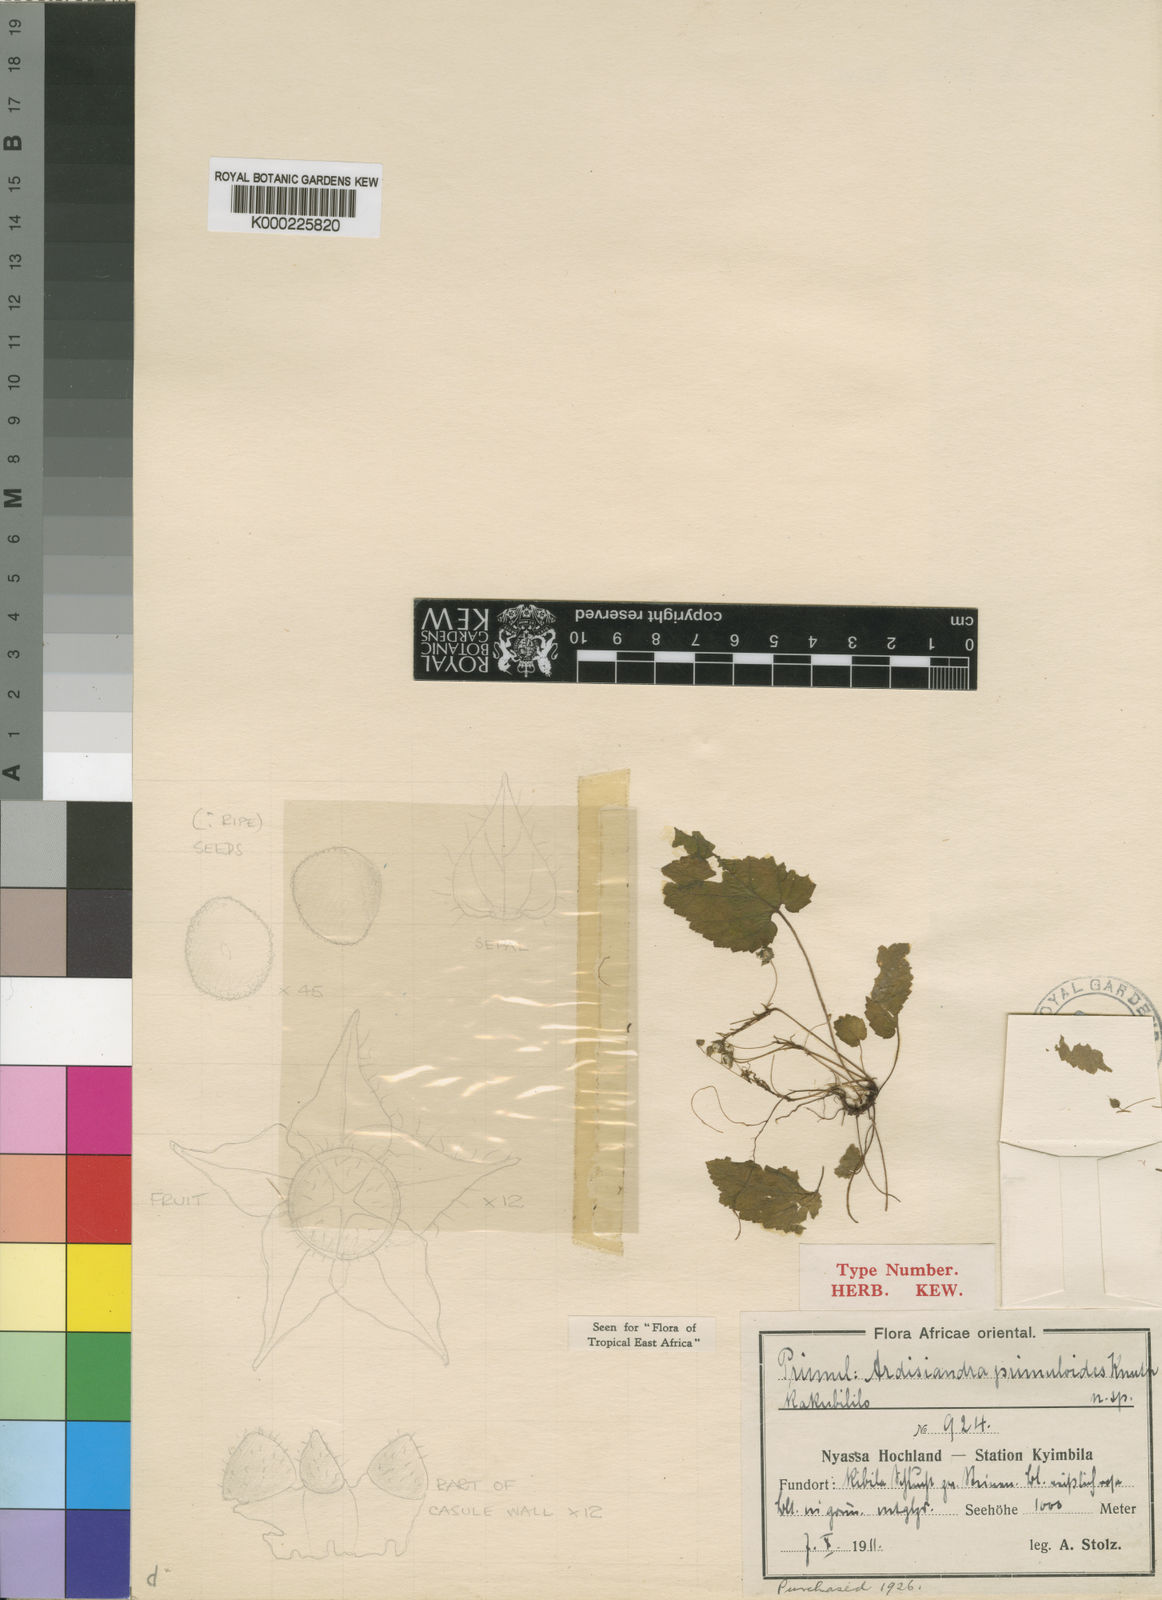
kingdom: Plantae
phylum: Tracheophyta
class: Magnoliopsida
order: Ericales
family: Primulaceae
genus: Ardisiandra
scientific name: Ardisiandra primuloides
